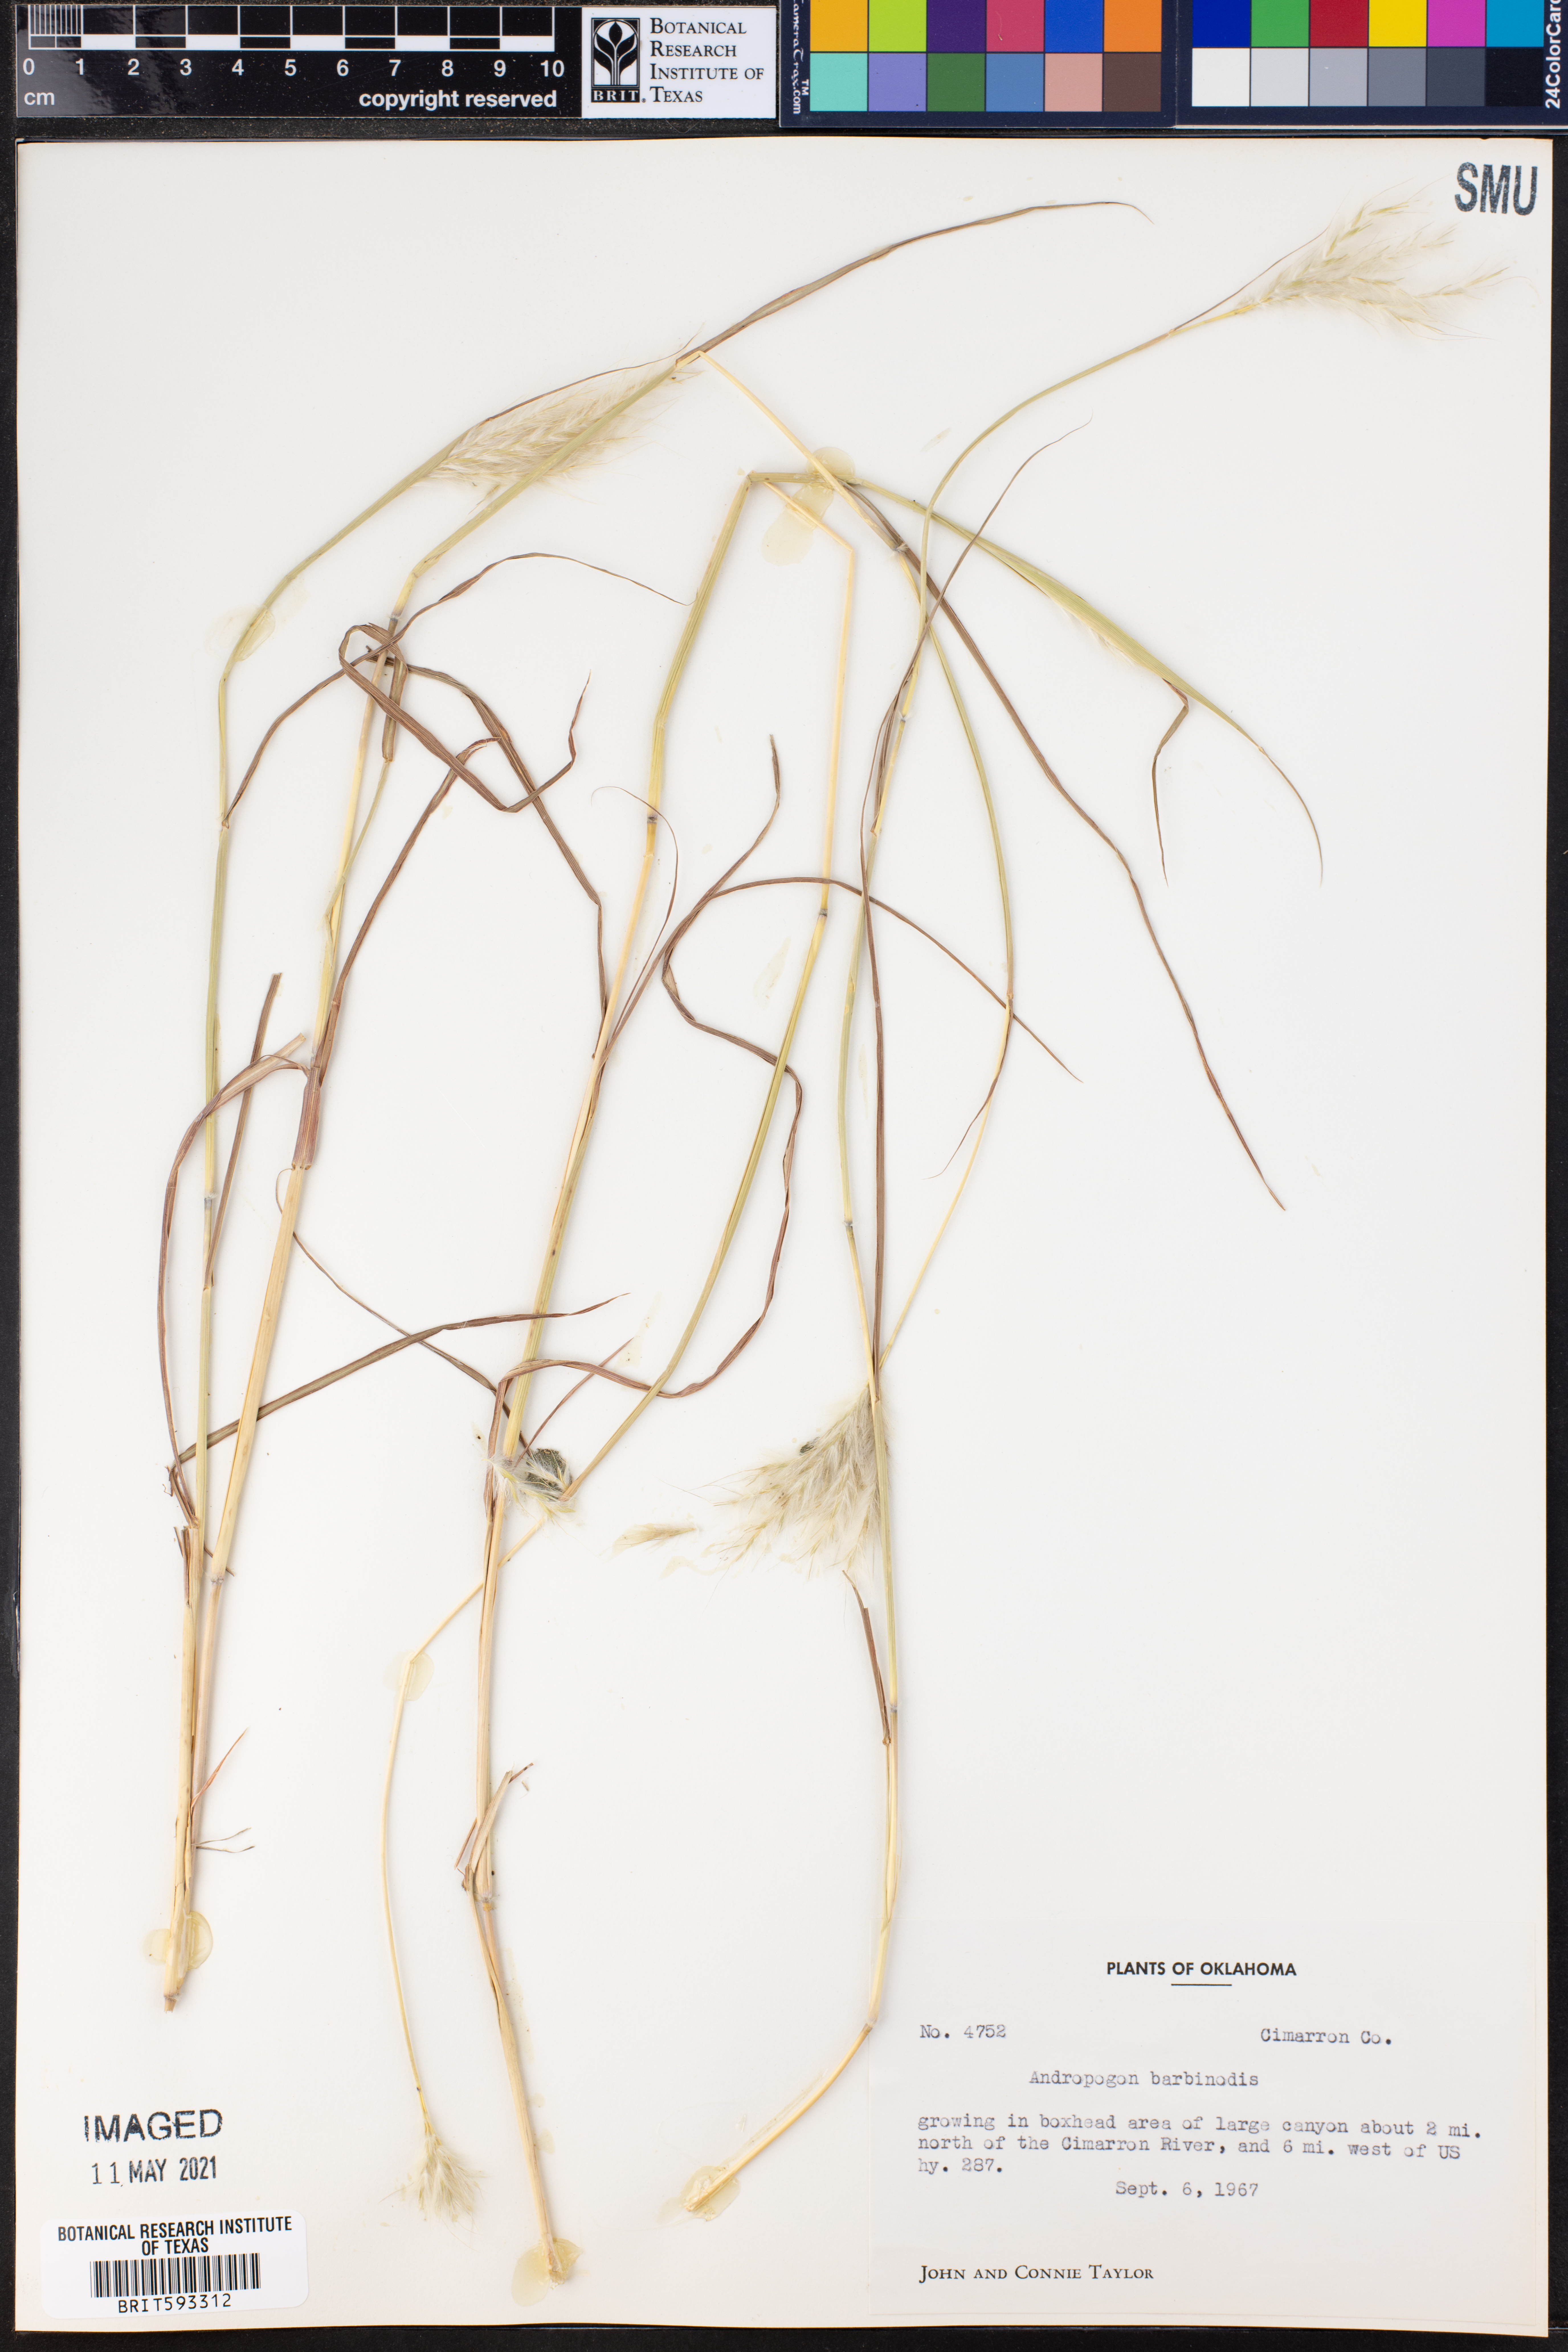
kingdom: Plantae
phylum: Tracheophyta
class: Liliopsida
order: Poales
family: Poaceae
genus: Bothriochloa
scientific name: Bothriochloa barbinodis
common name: Cane bluestem
